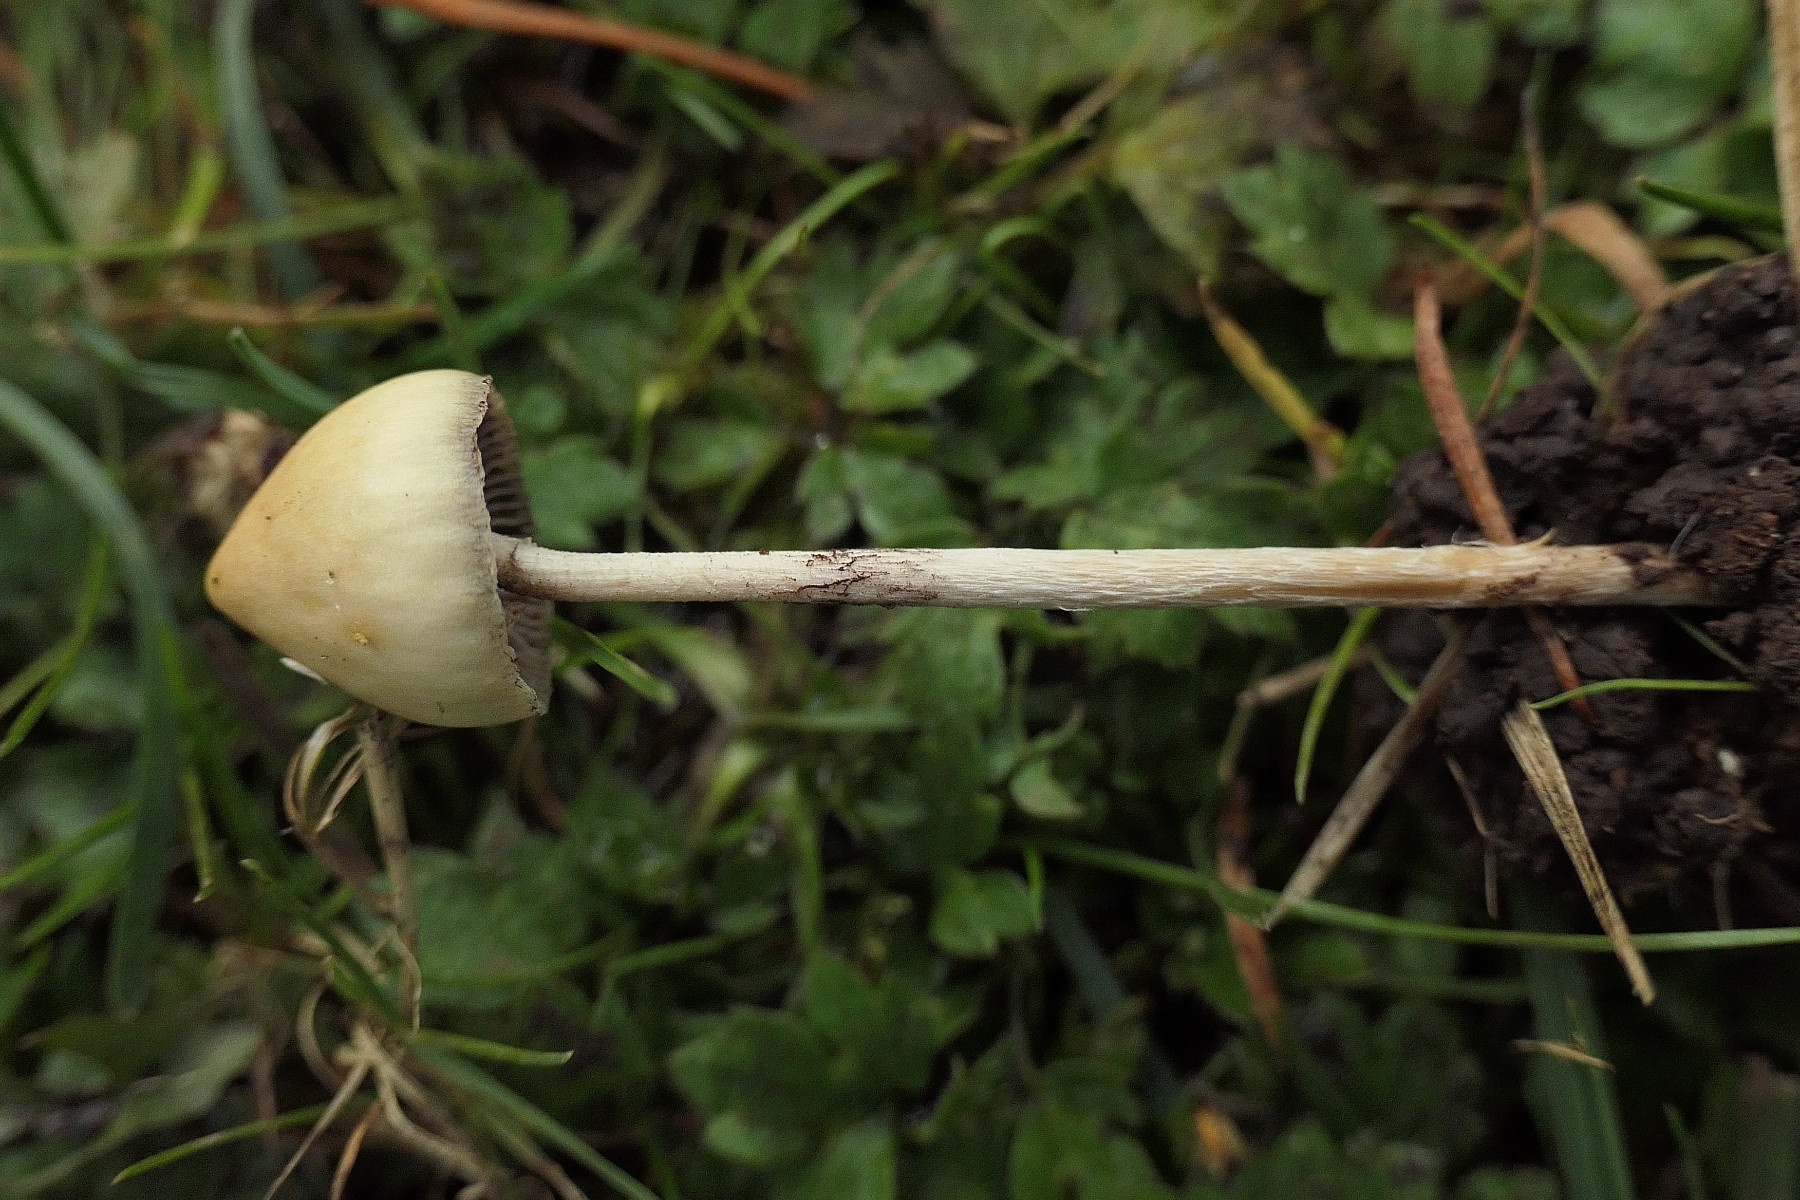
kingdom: Fungi
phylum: Basidiomycota
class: Agaricomycetes
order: Agaricales
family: Hymenogastraceae
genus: Psilocybe
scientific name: Psilocybe semilanceata
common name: spids nøgenhat
